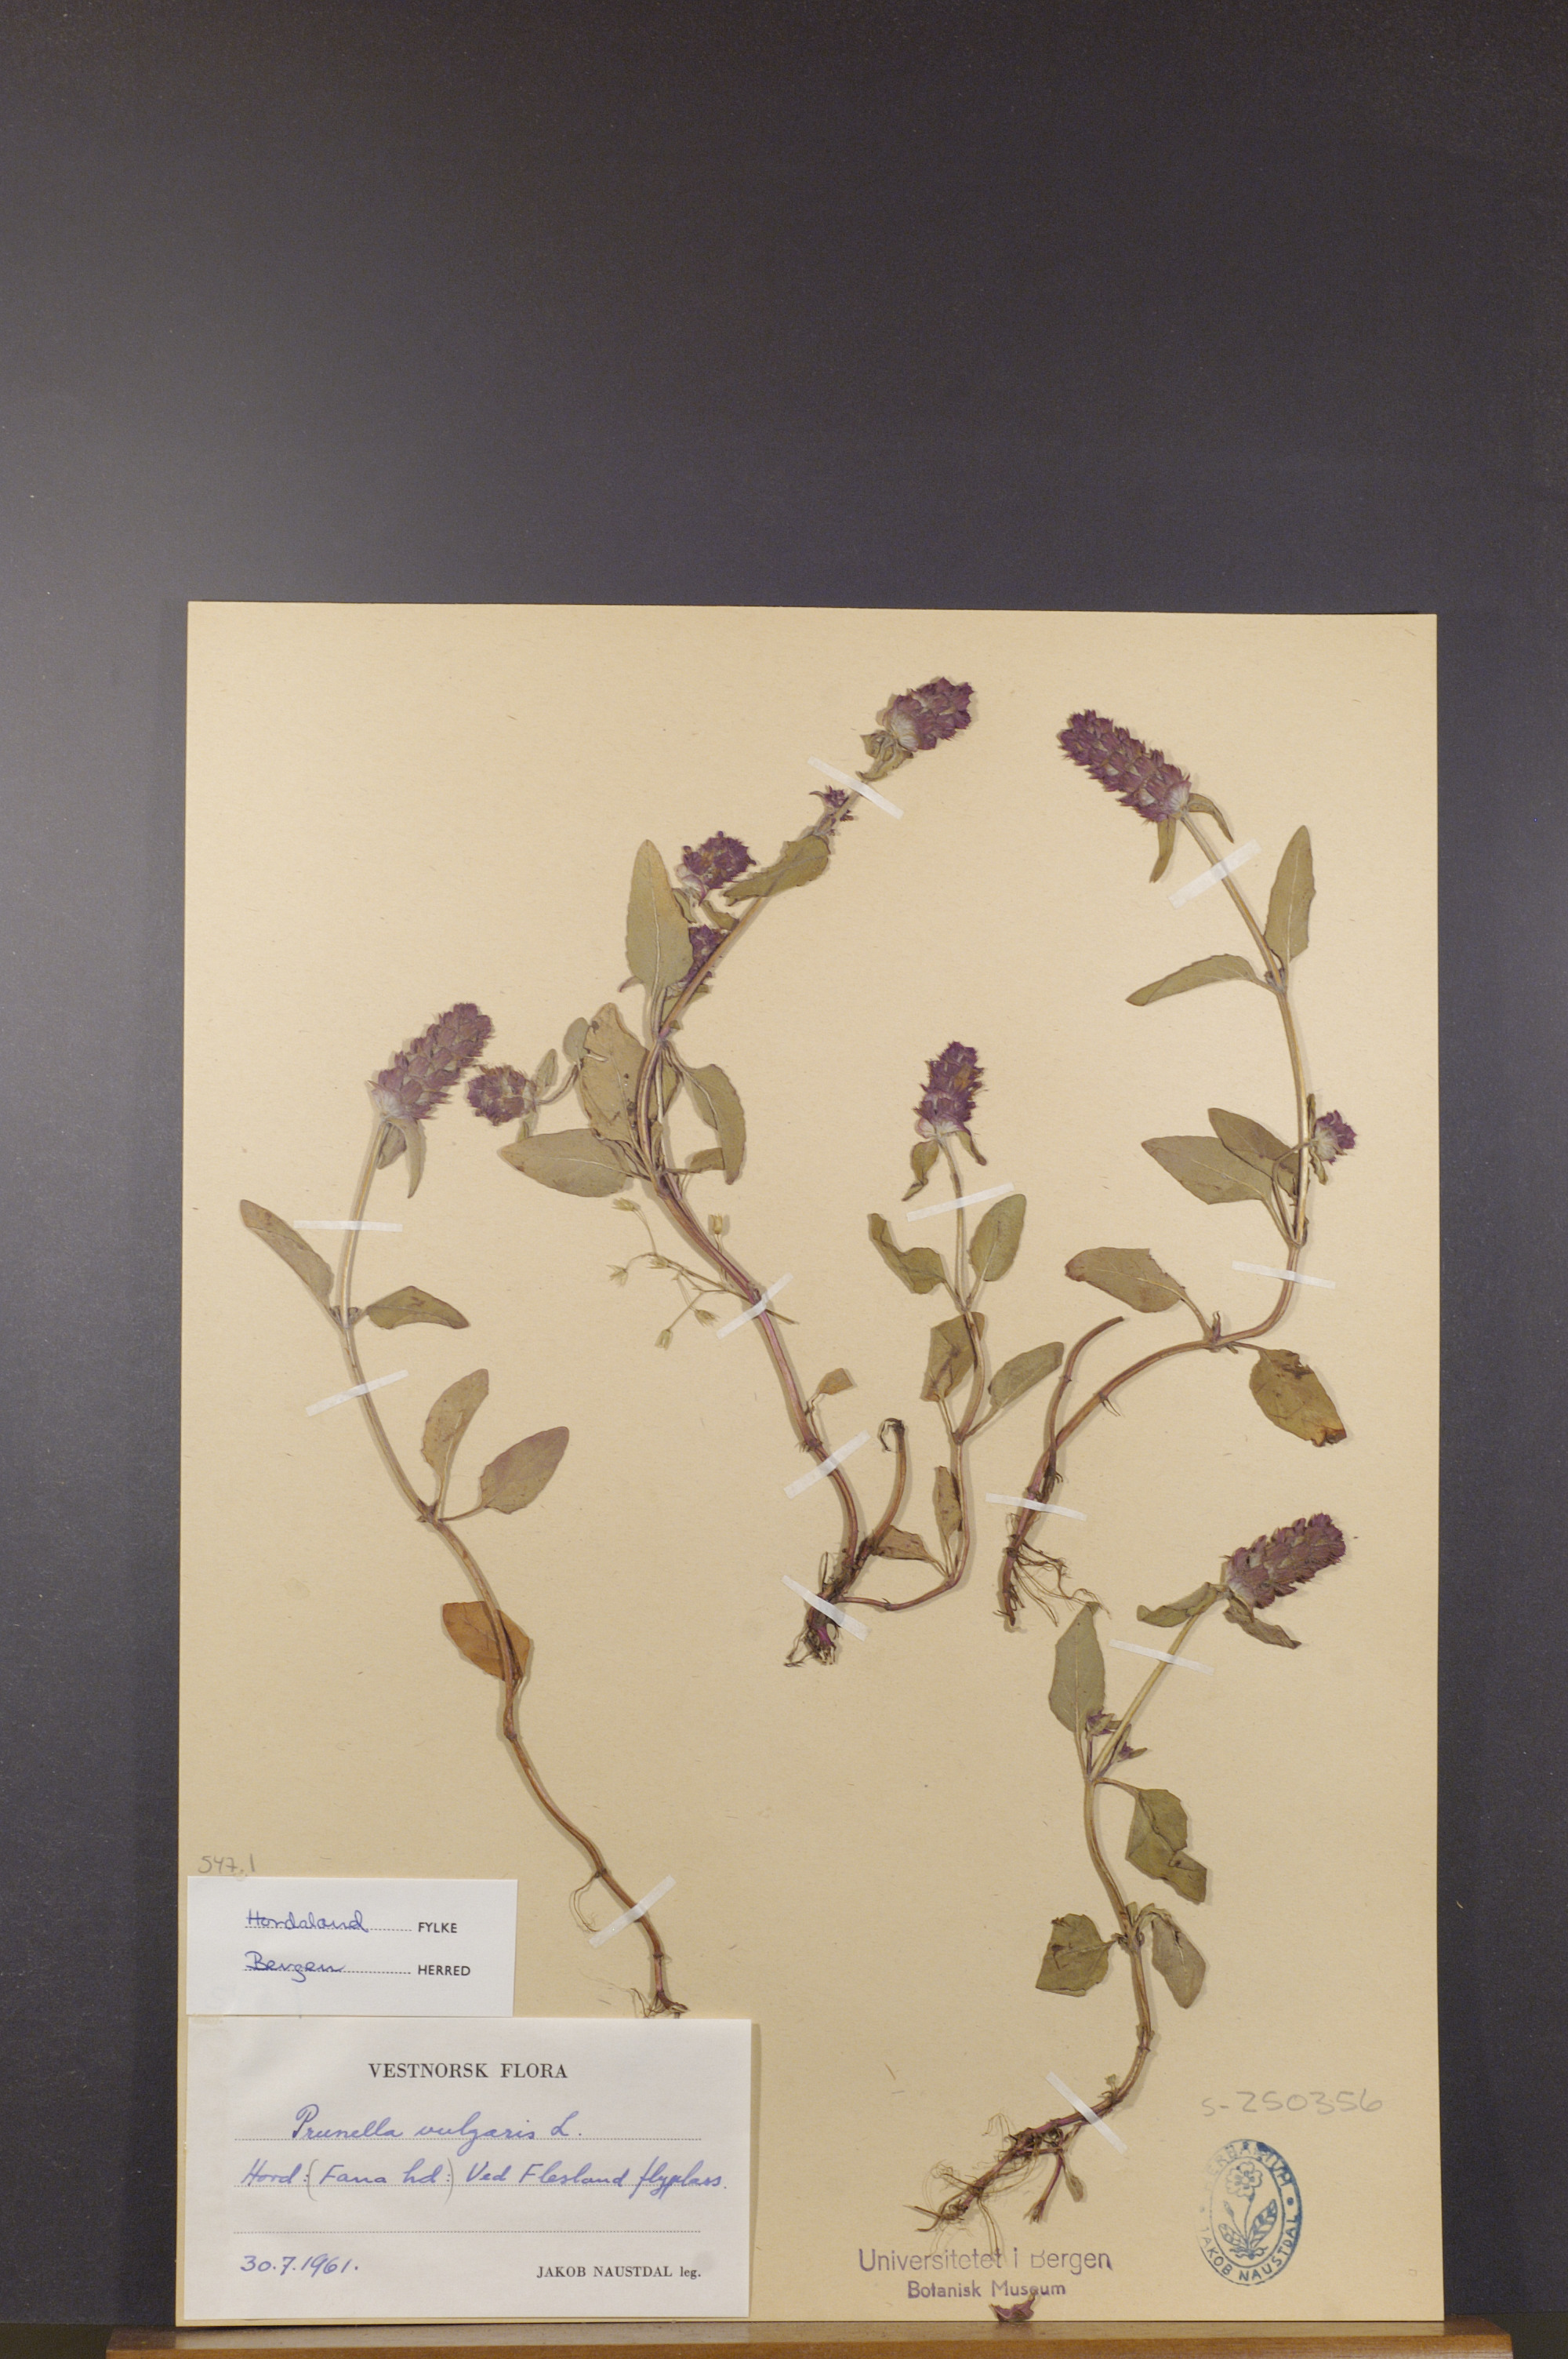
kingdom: Plantae
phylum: Tracheophyta
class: Magnoliopsida
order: Lamiales
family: Lamiaceae
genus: Prunella
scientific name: Prunella vulgaris
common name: Heal-all
